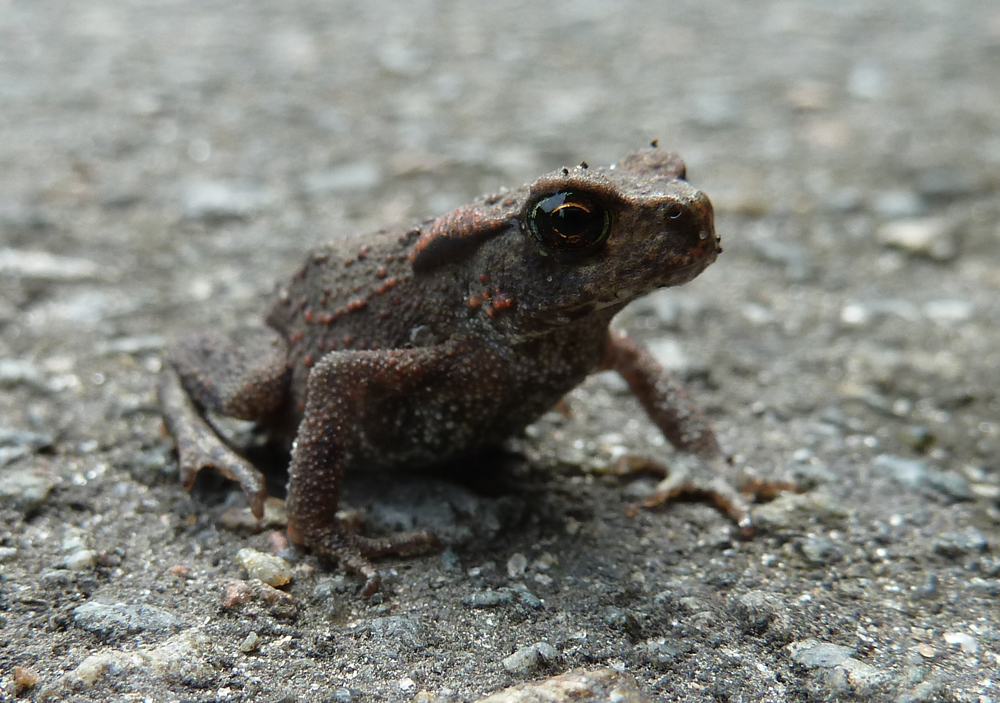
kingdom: Animalia
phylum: Chordata
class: Amphibia
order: Anura
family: Bufonidae
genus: Bufo
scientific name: Bufo bufo
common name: Common toad
